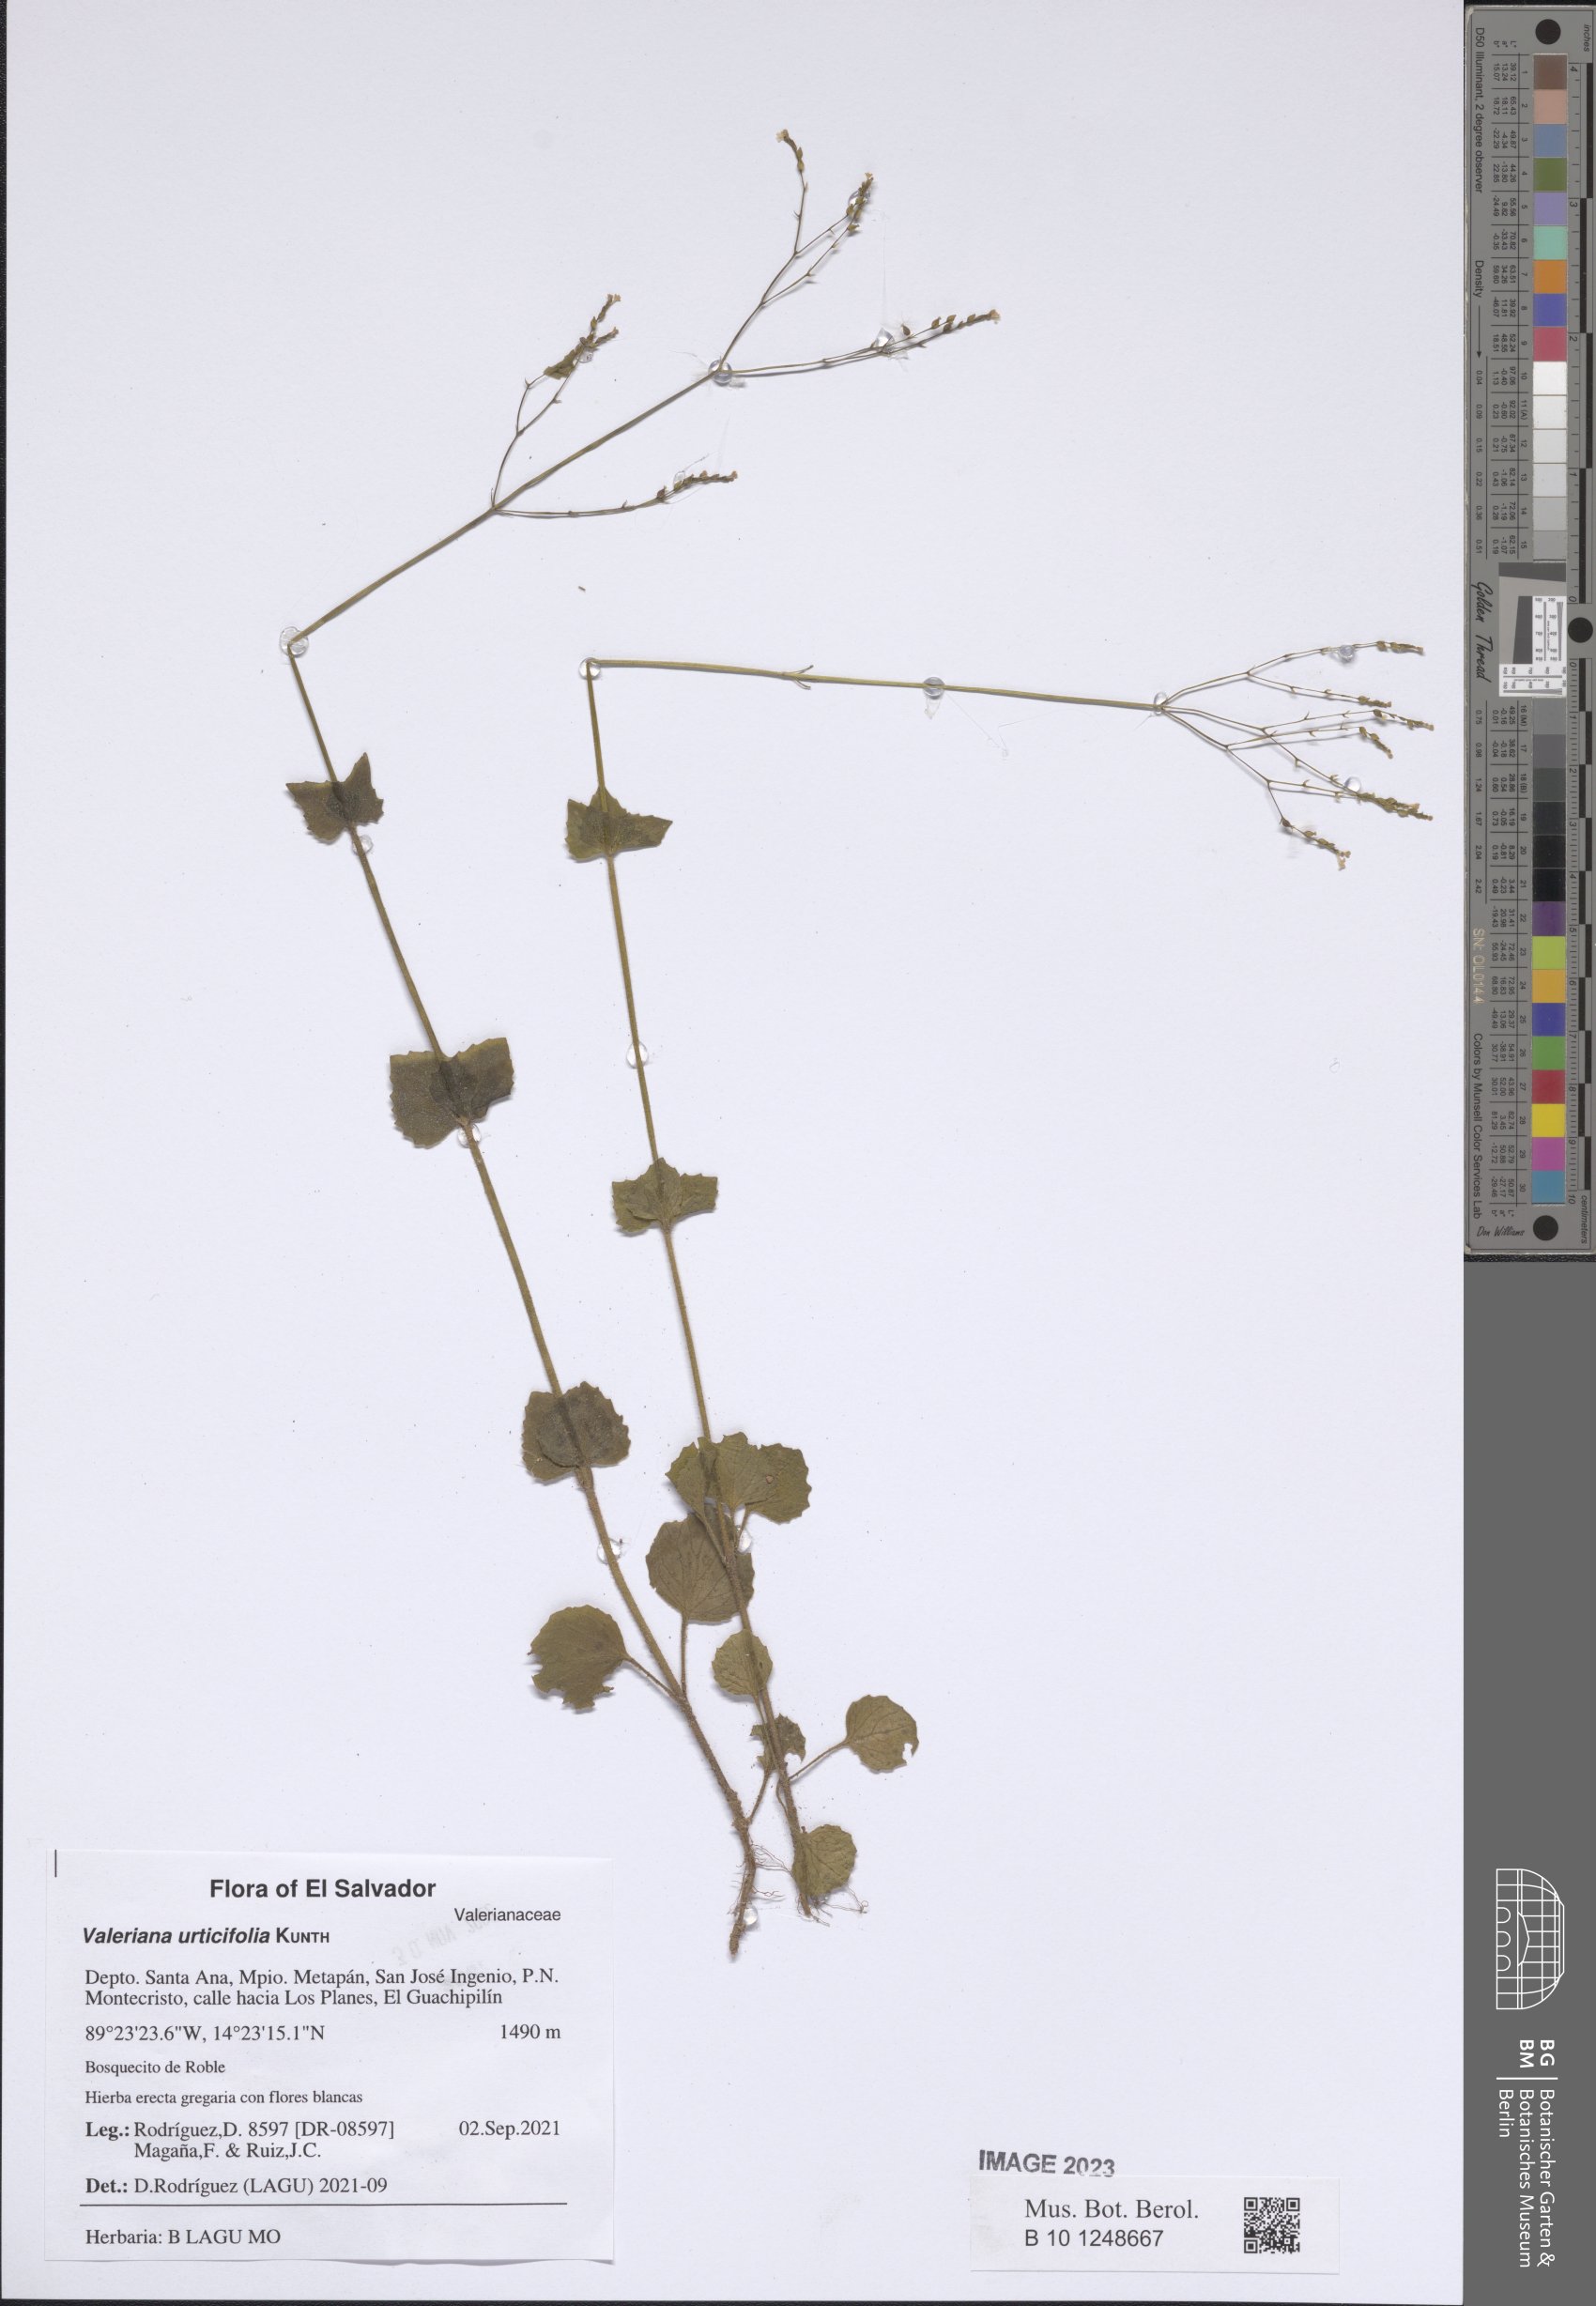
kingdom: Plantae
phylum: Tracheophyta
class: Magnoliopsida
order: Dipsacales
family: Caprifoliaceae
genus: Valeriana
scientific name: Valeriana urticifolia
